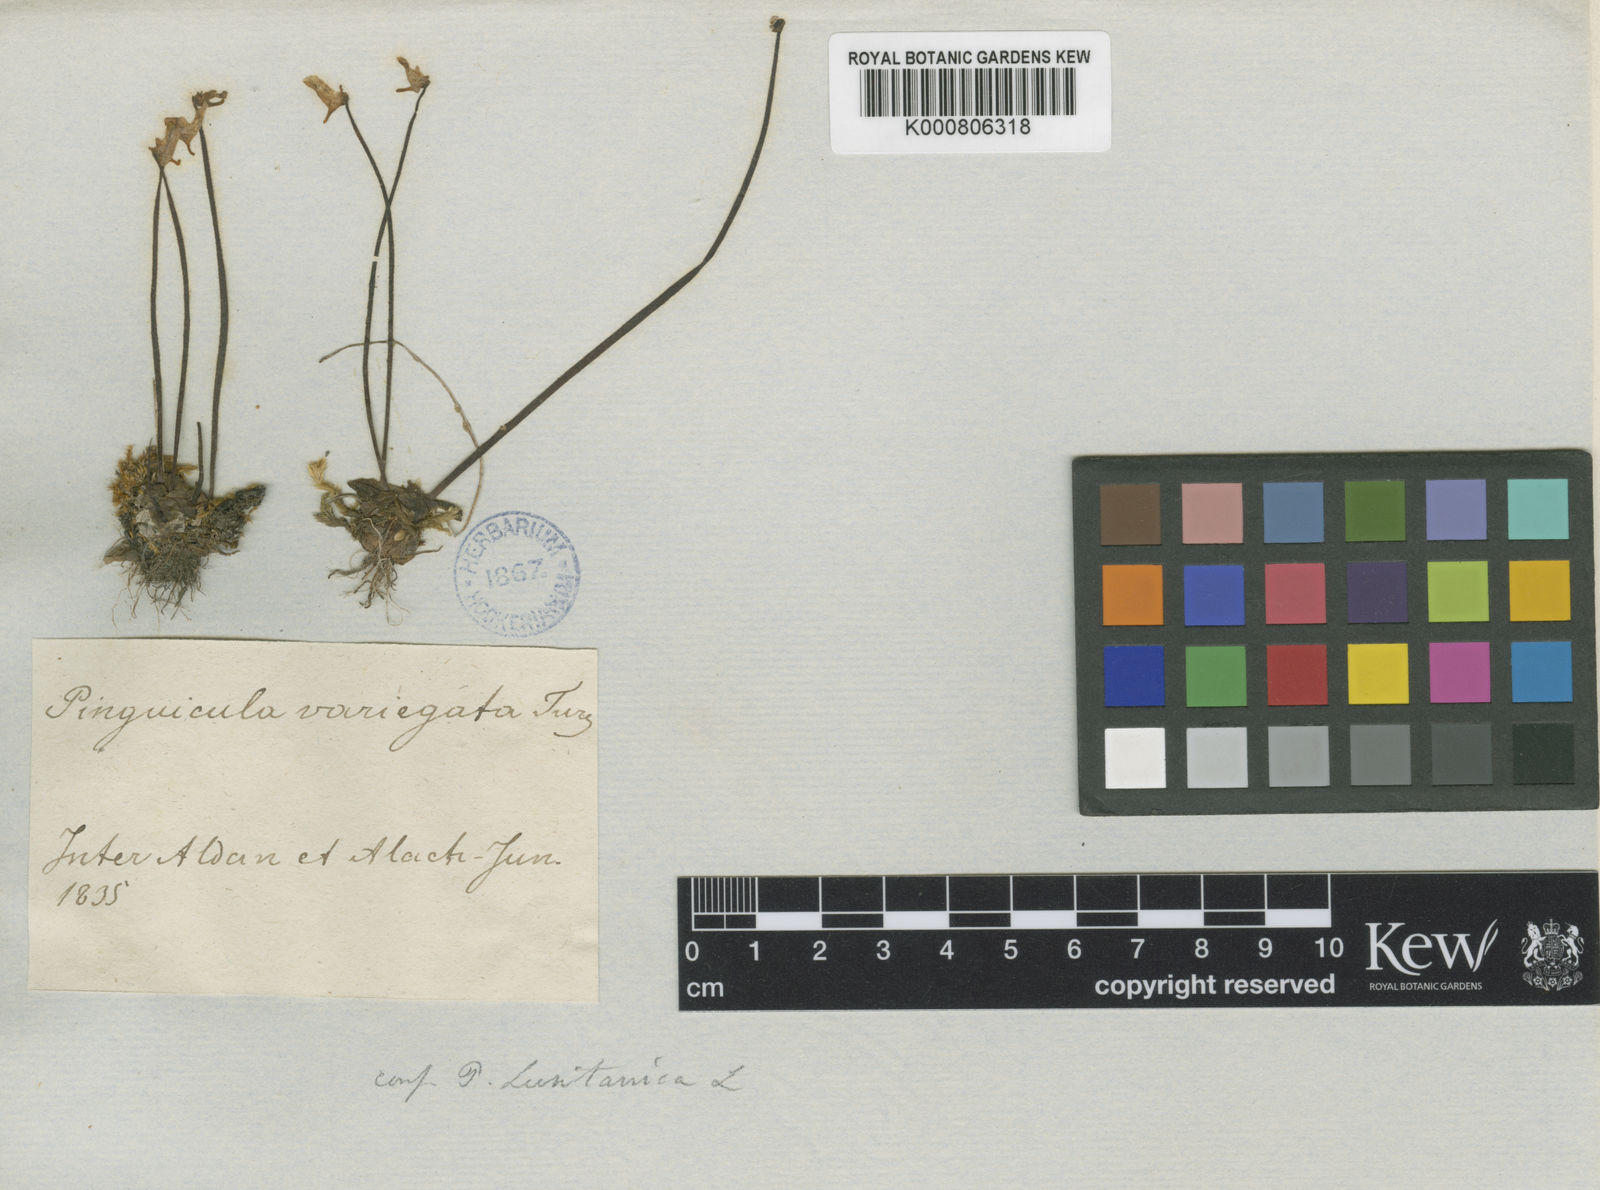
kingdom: Plantae
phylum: Tracheophyta
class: Magnoliopsida
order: Lamiales
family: Lentibulariaceae
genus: Pinguicula
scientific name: Pinguicula spathulata
